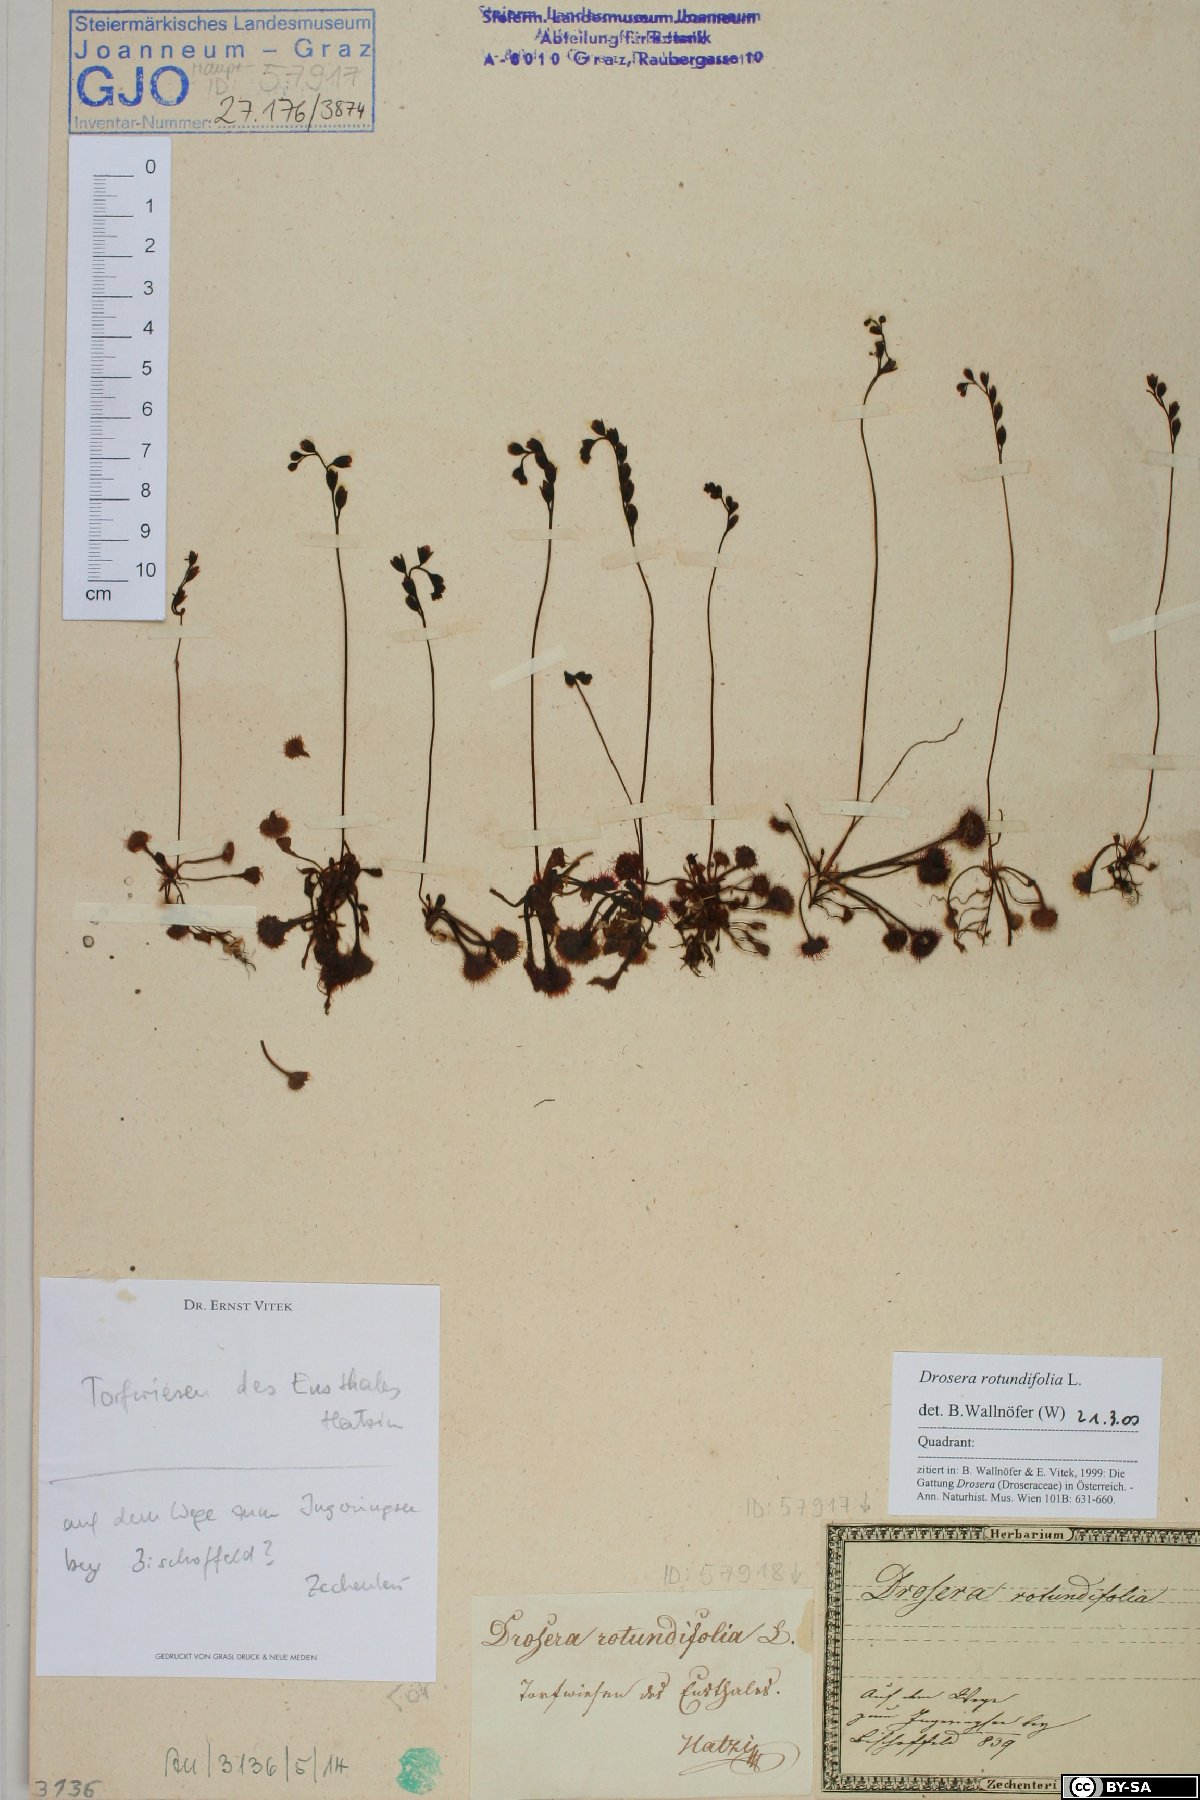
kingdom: Plantae
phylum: Tracheophyta
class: Magnoliopsida
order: Caryophyllales
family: Droseraceae
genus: Drosera
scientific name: Drosera rotundifolia
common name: Round-leaved sundew
